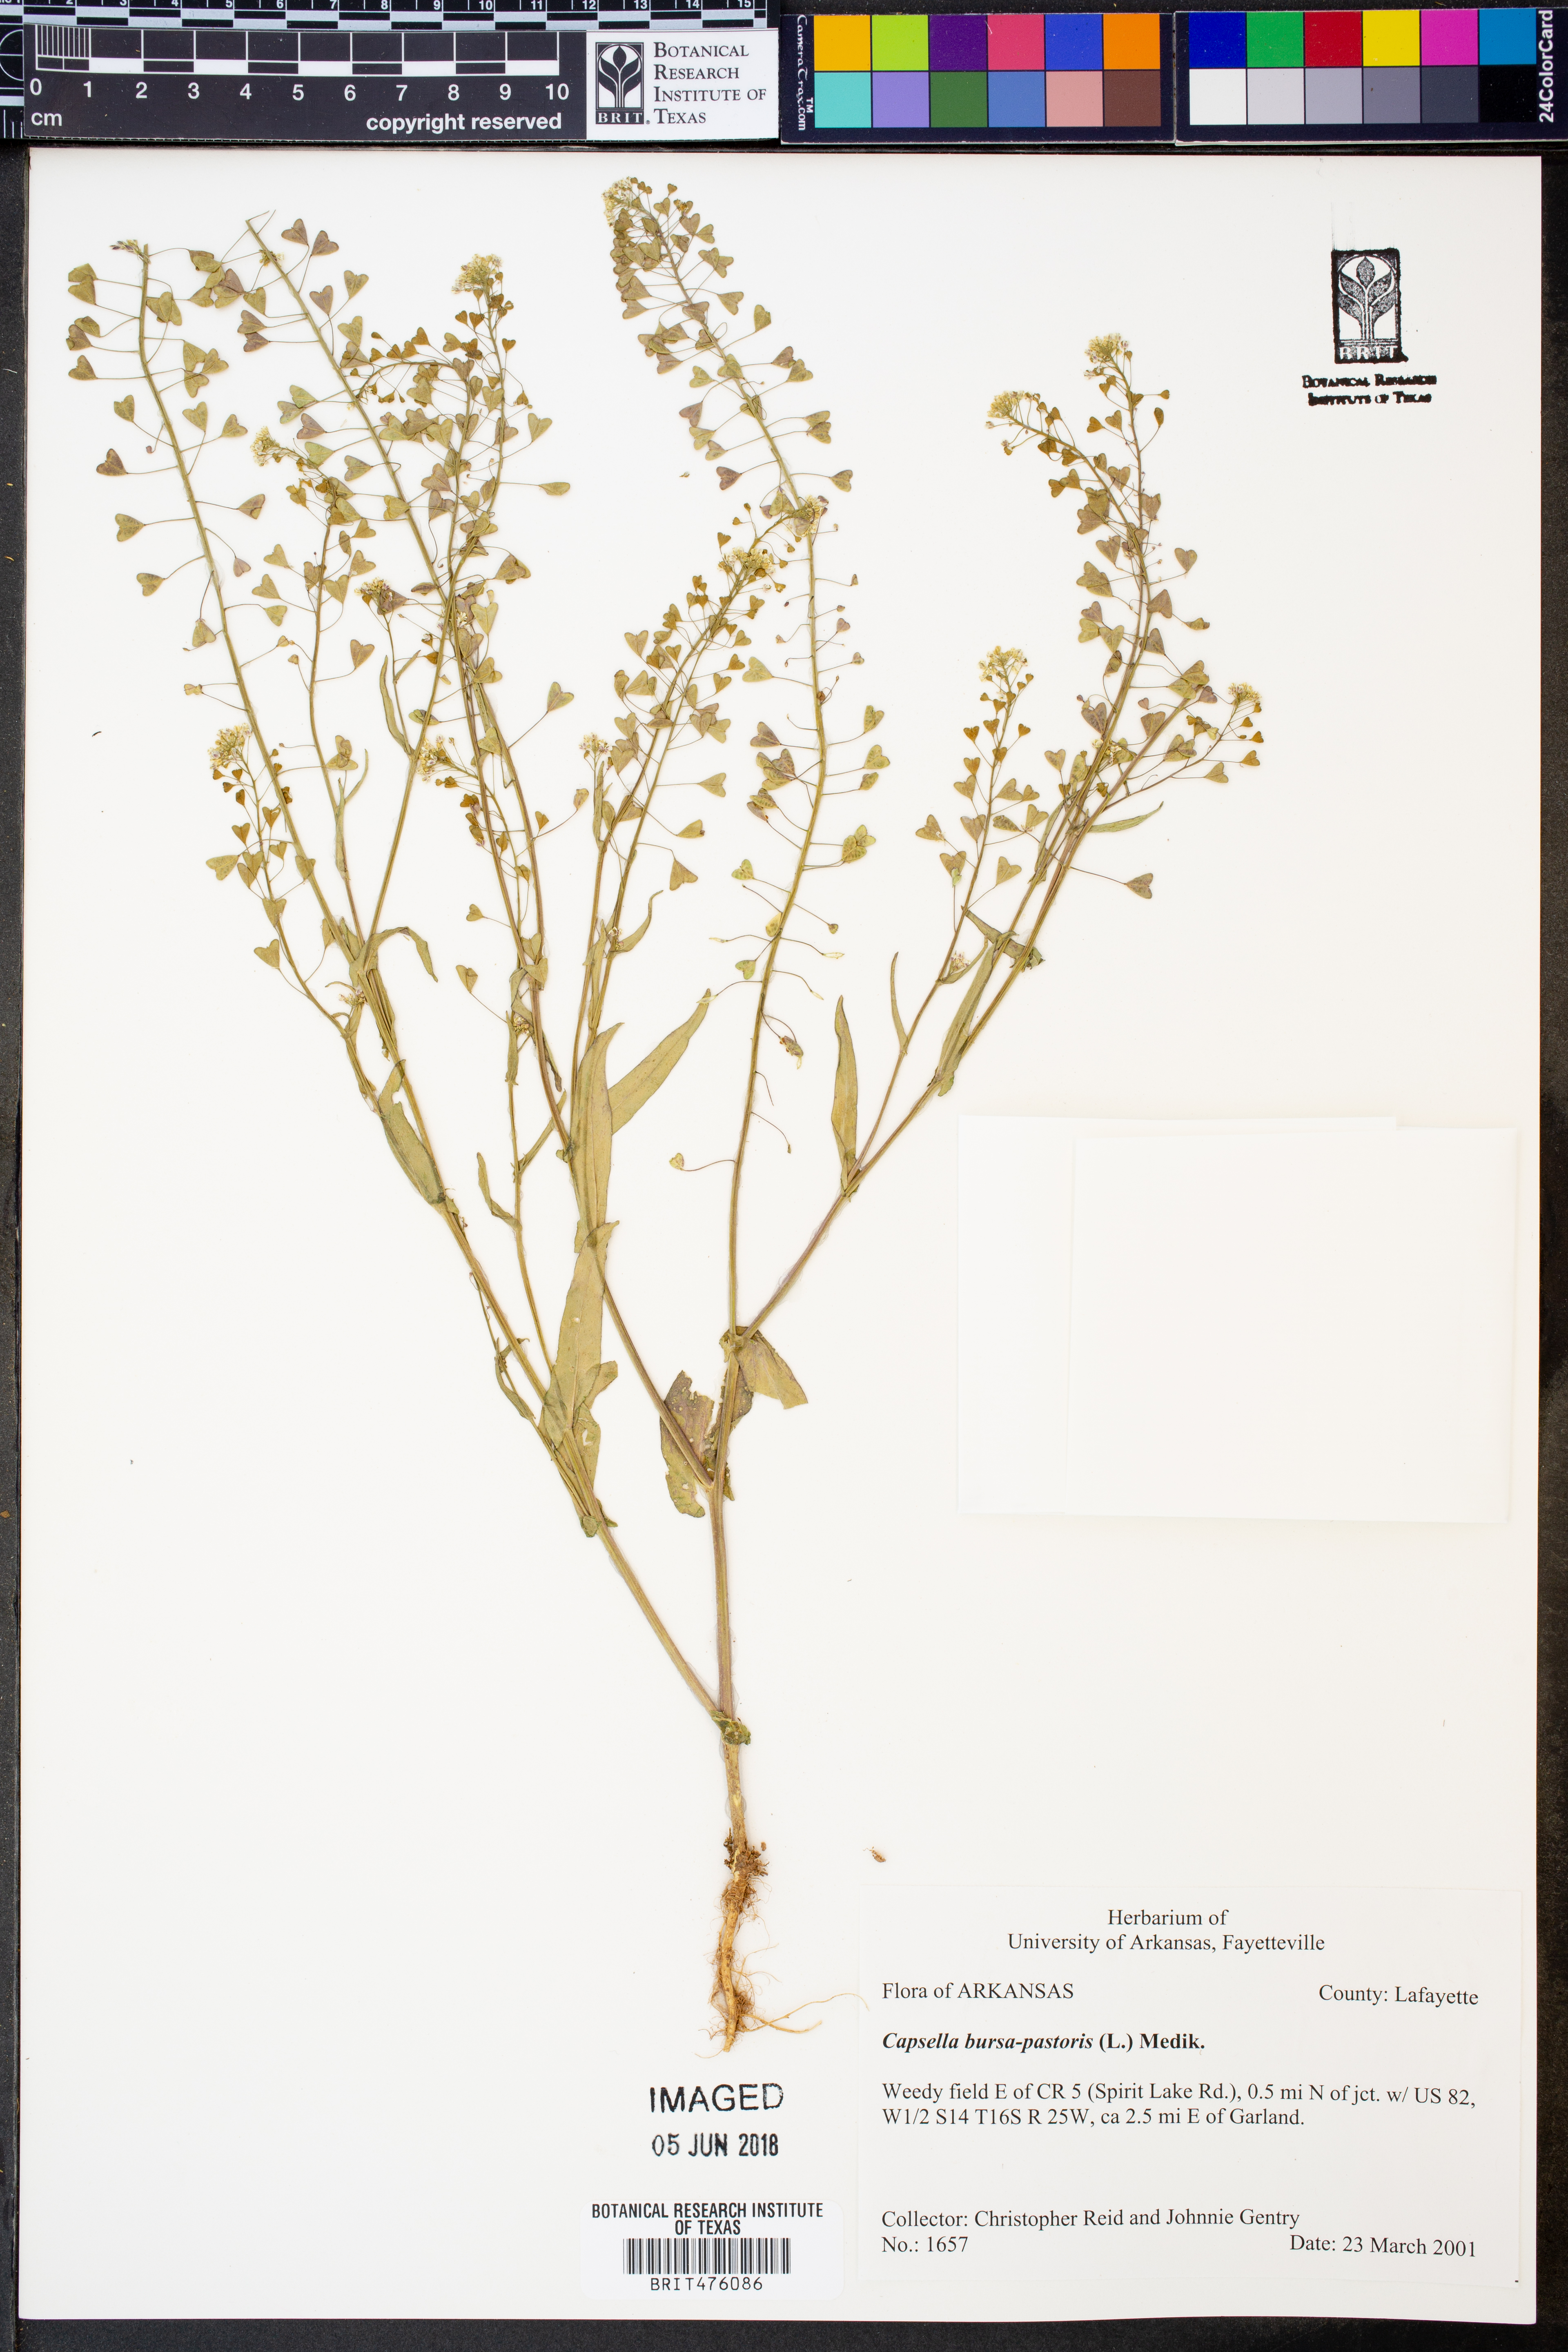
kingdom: Plantae
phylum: Tracheophyta
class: Magnoliopsida
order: Brassicales
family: Brassicaceae
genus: Capsella
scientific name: Capsella bursa-pastoris
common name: Shepherd's purse
